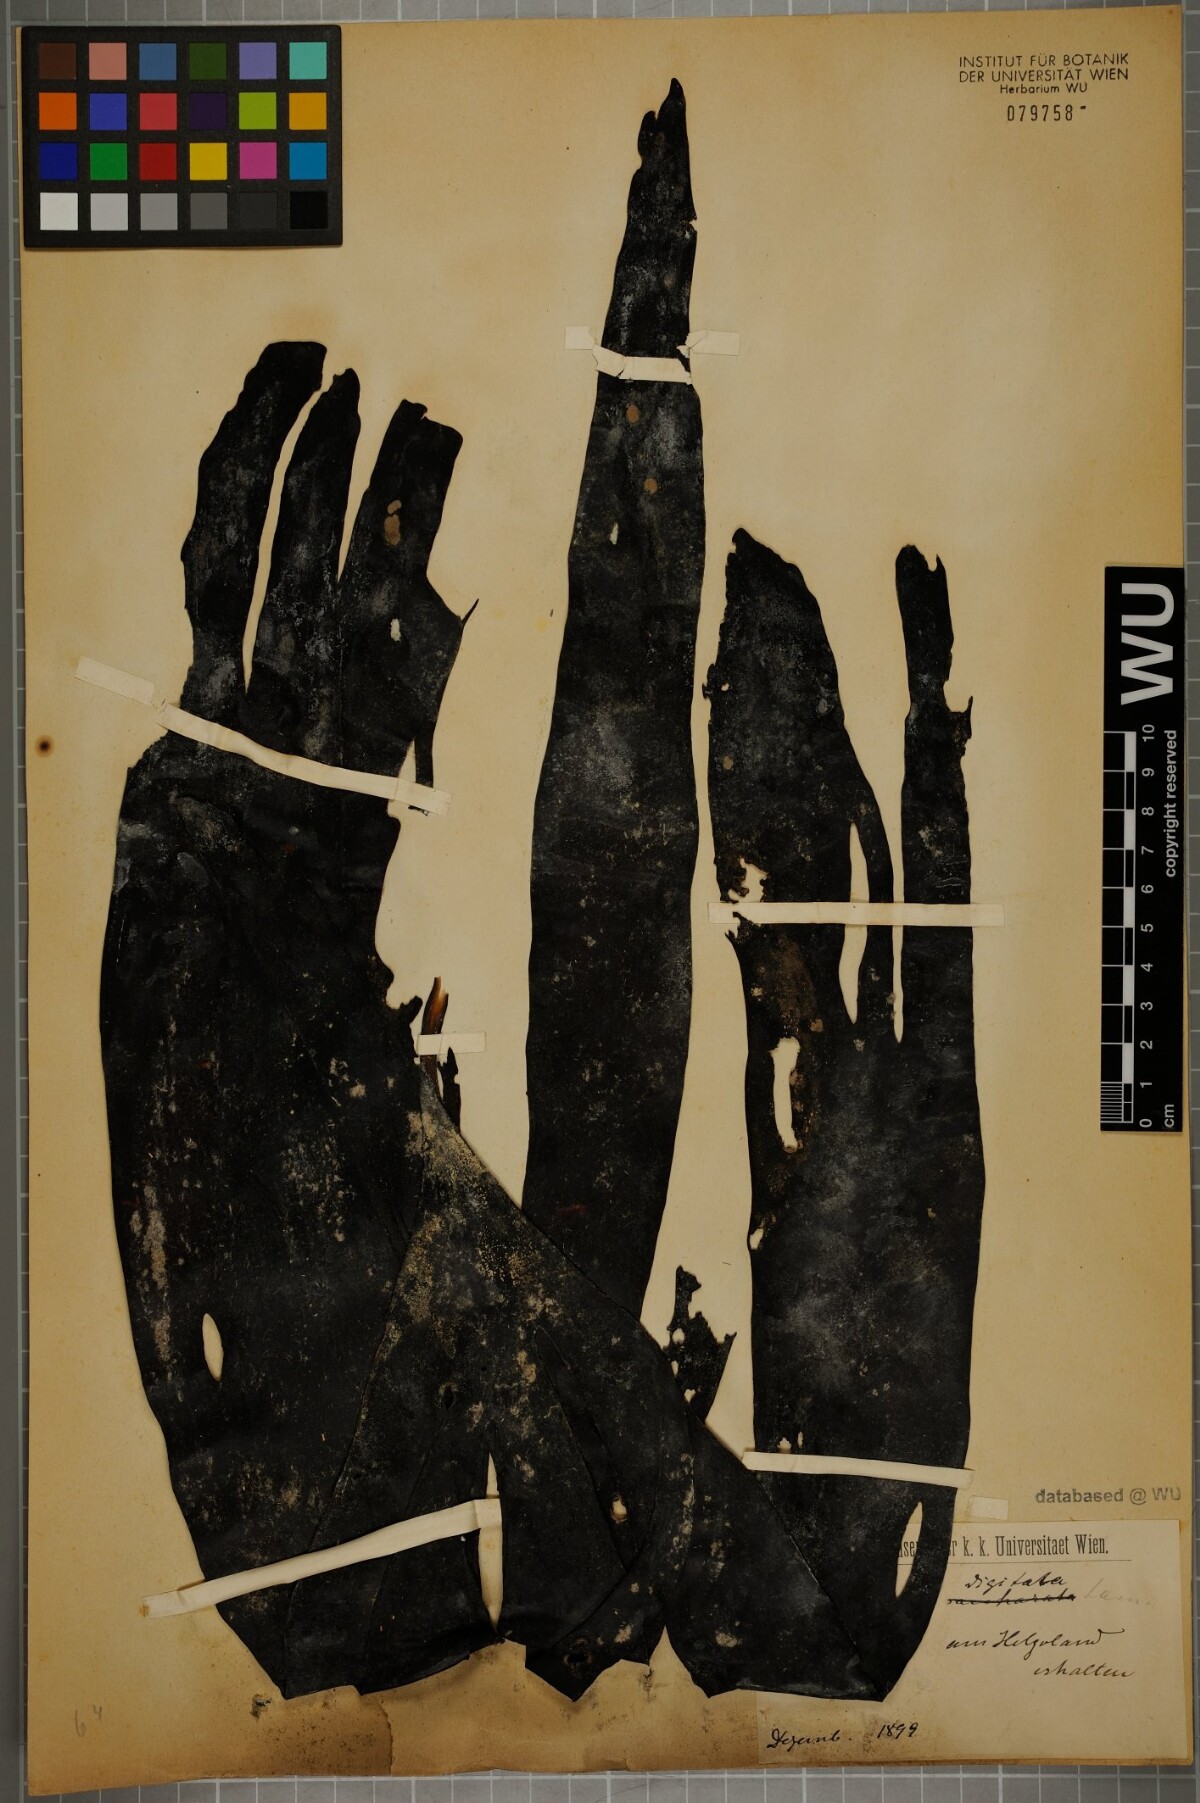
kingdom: Chromista
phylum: Ochrophyta
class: Phaeophyceae
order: Laminariales
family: Laminariaceae
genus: Laminaria
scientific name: Laminaria digitata
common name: Oarweed
